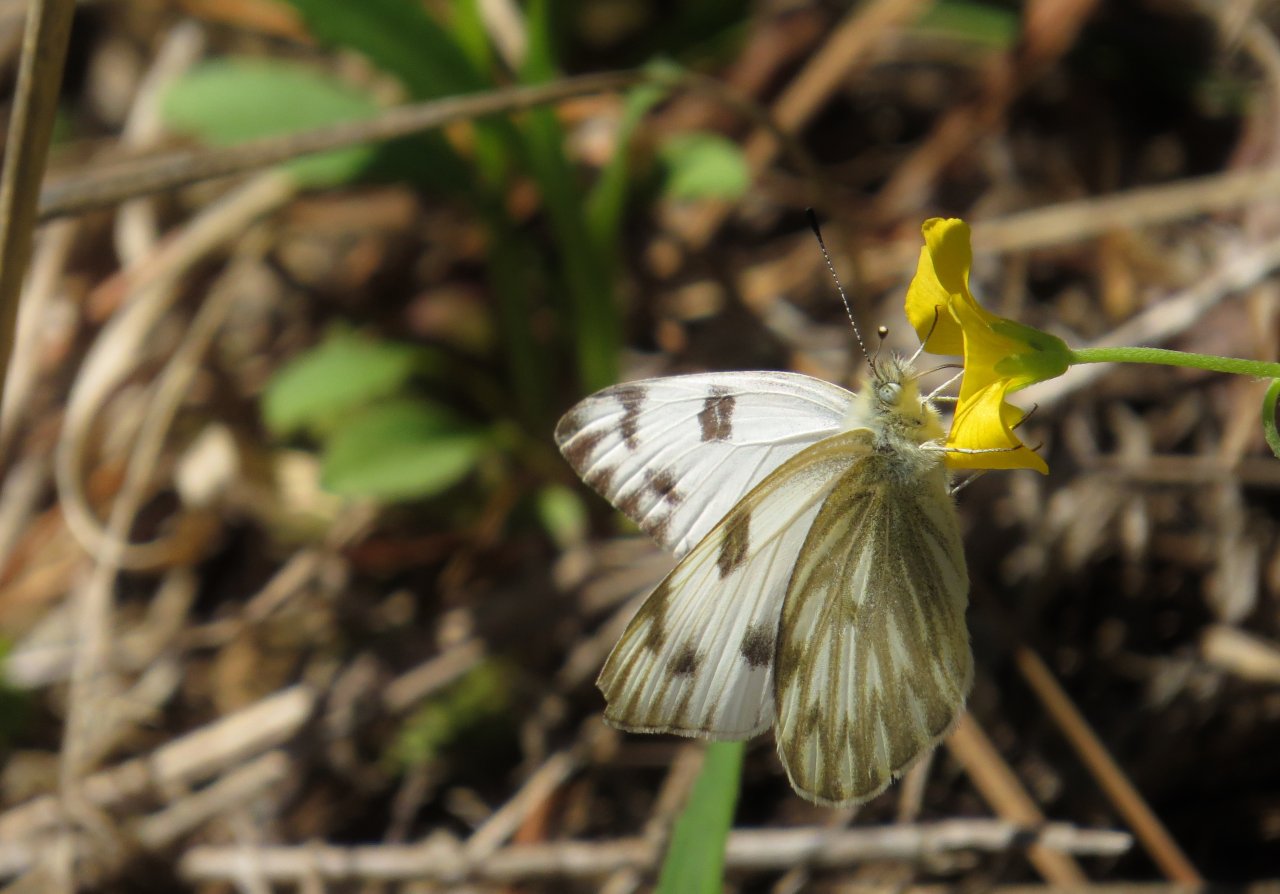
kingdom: Animalia
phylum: Arthropoda
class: Insecta
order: Lepidoptera
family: Pieridae
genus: Pontia
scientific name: Pontia protodice
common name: Checkered White
